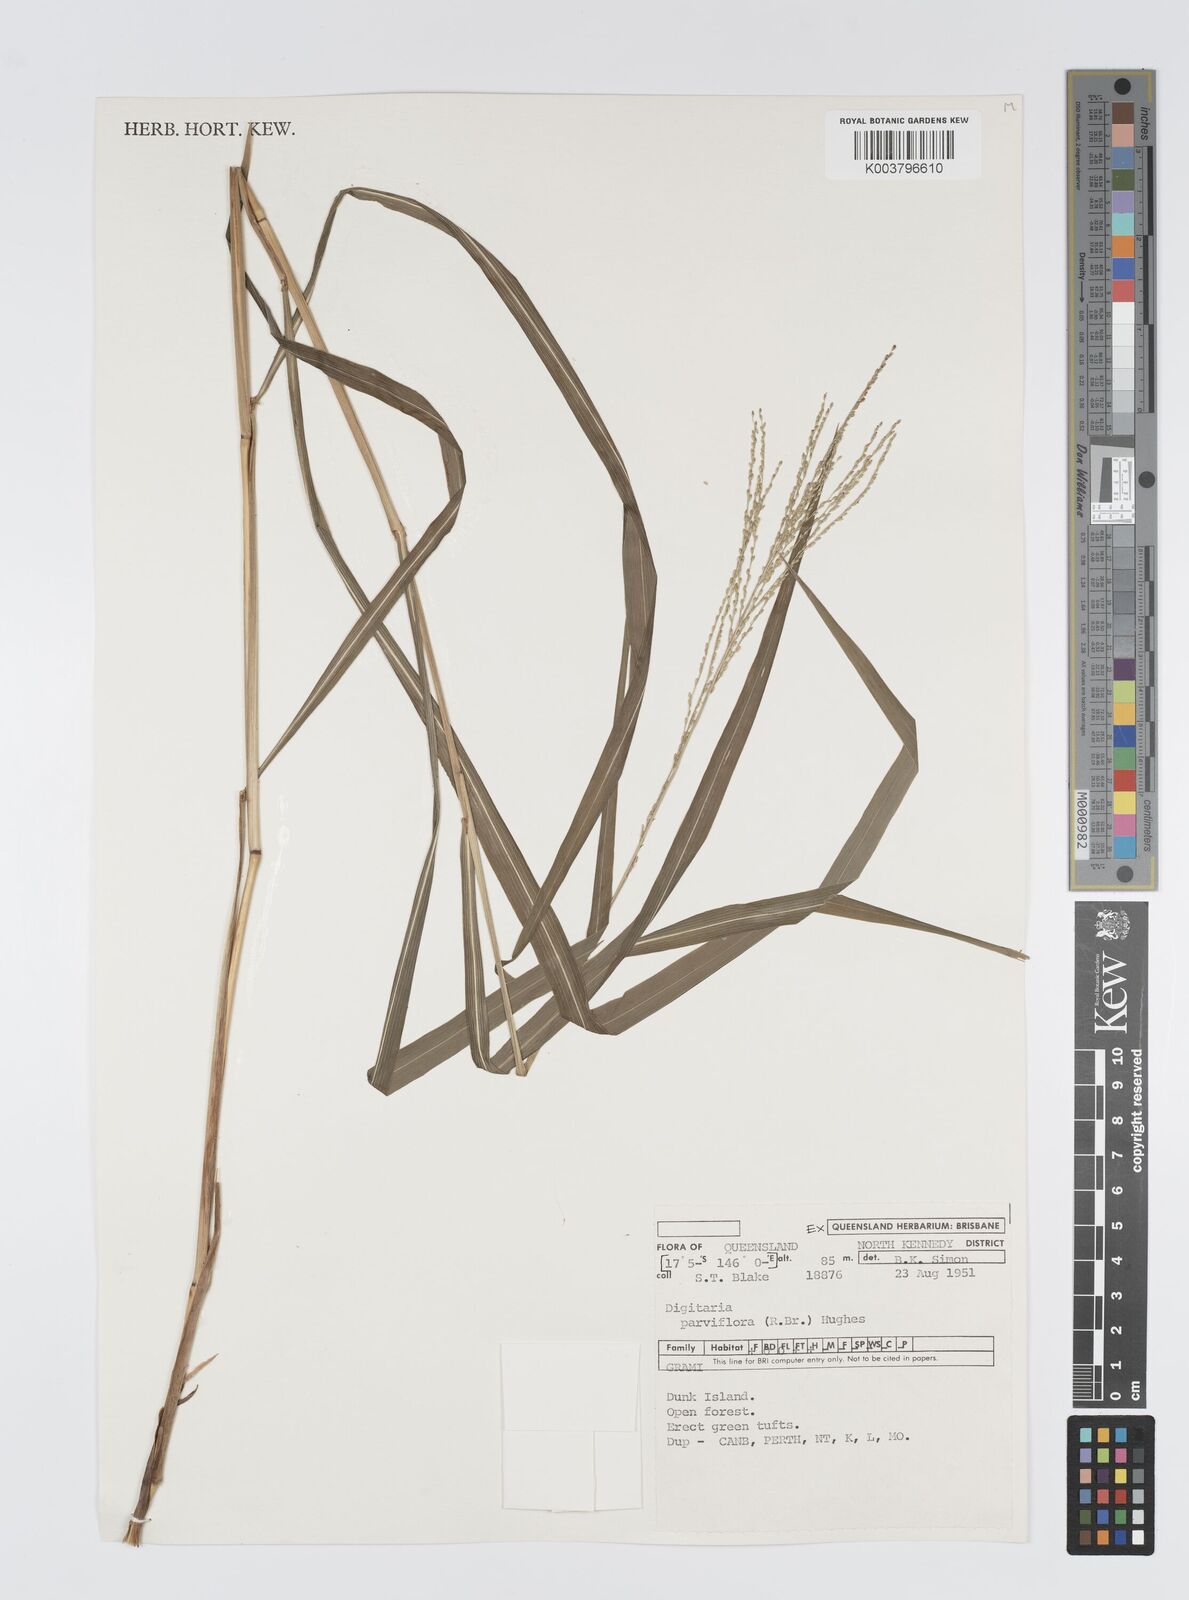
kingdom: Plantae
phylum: Tracheophyta
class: Liliopsida
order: Poales
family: Poaceae
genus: Digitaria
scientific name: Digitaria parviflora
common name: Small-flower finger grass
